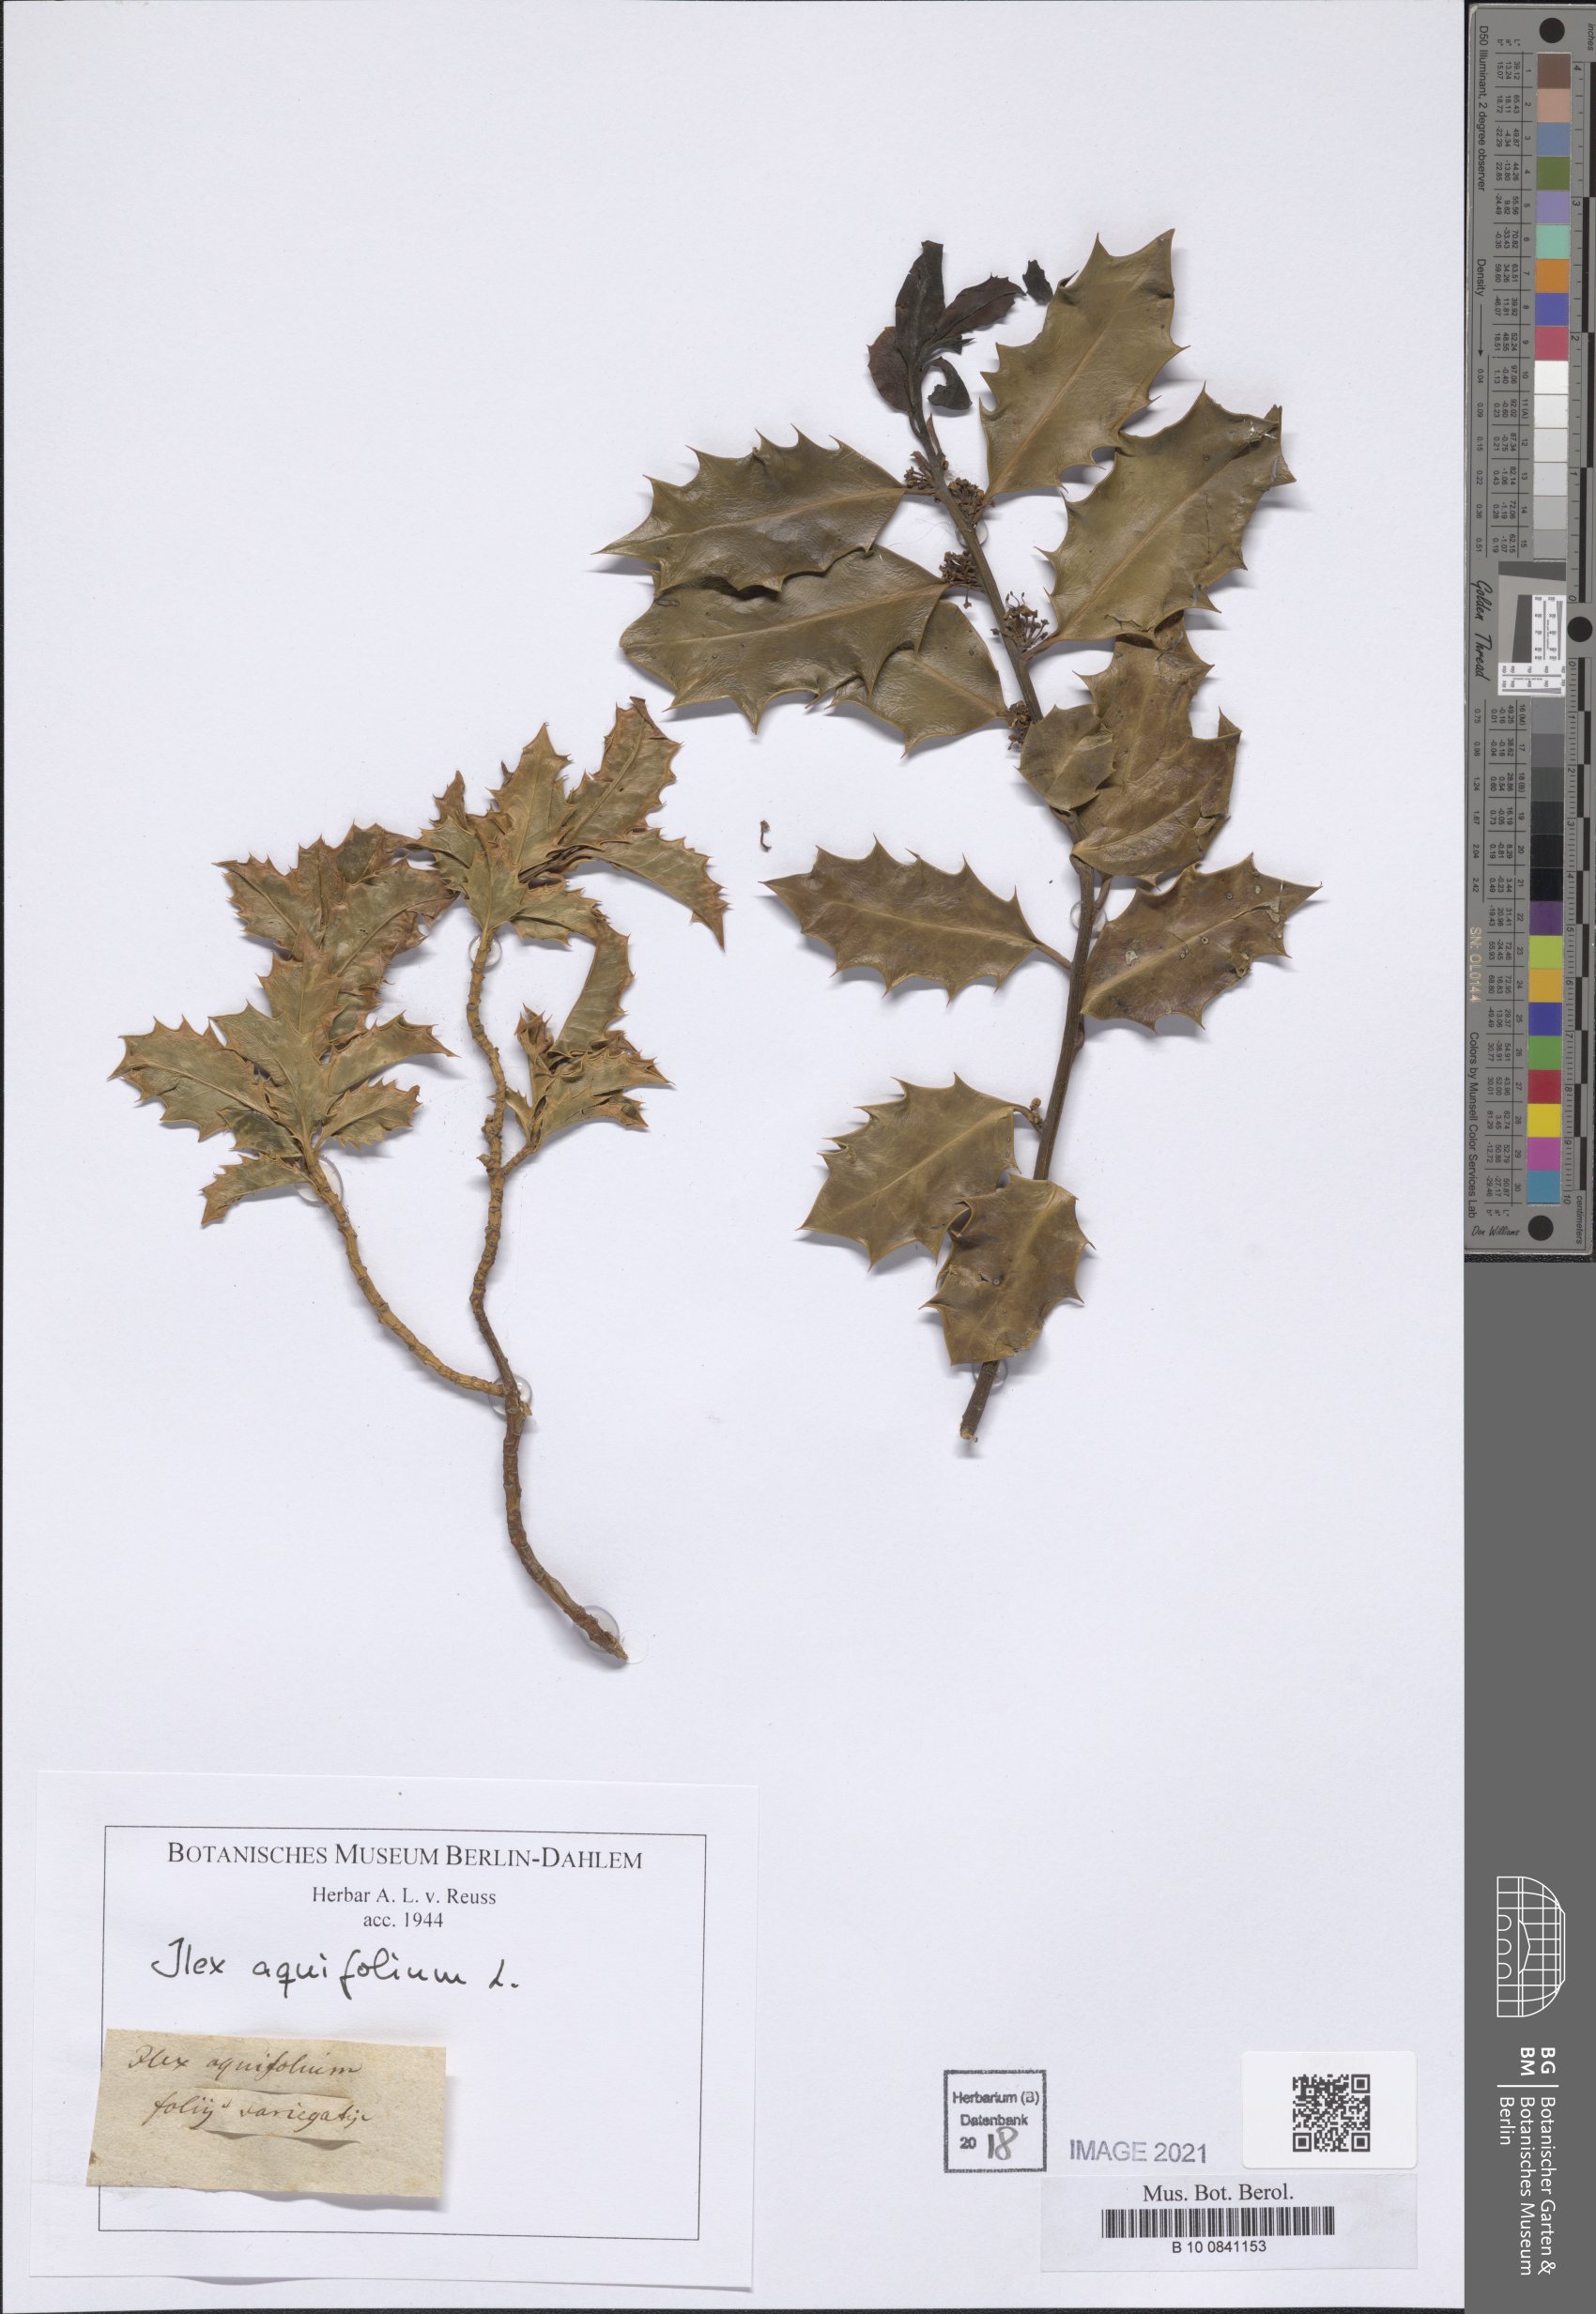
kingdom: Plantae
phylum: Tracheophyta
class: Magnoliopsida
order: Aquifoliales
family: Aquifoliaceae
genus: Ilex
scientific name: Ilex aquifolium
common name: English holly
